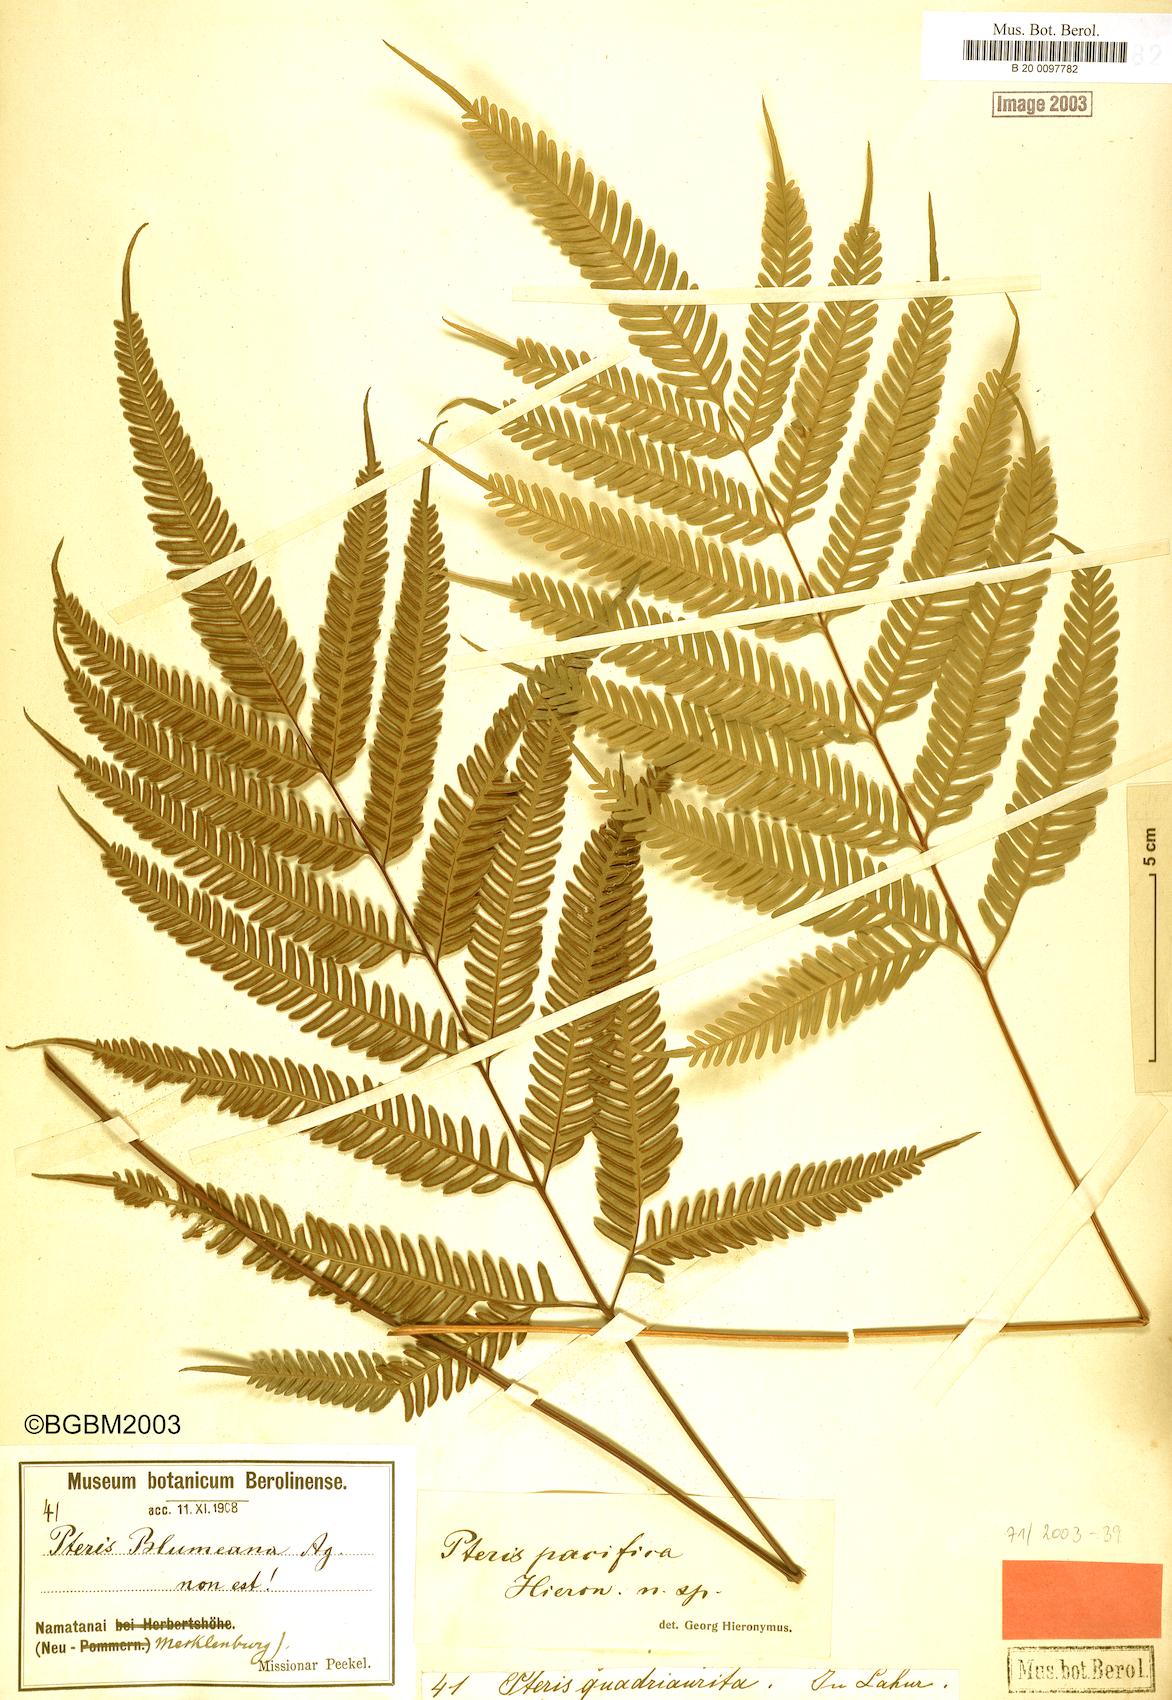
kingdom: Plantae
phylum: Tracheophyta
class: Polypodiopsida
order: Polypodiales
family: Pteridaceae
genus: Pteris
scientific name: Pteris biaurita
